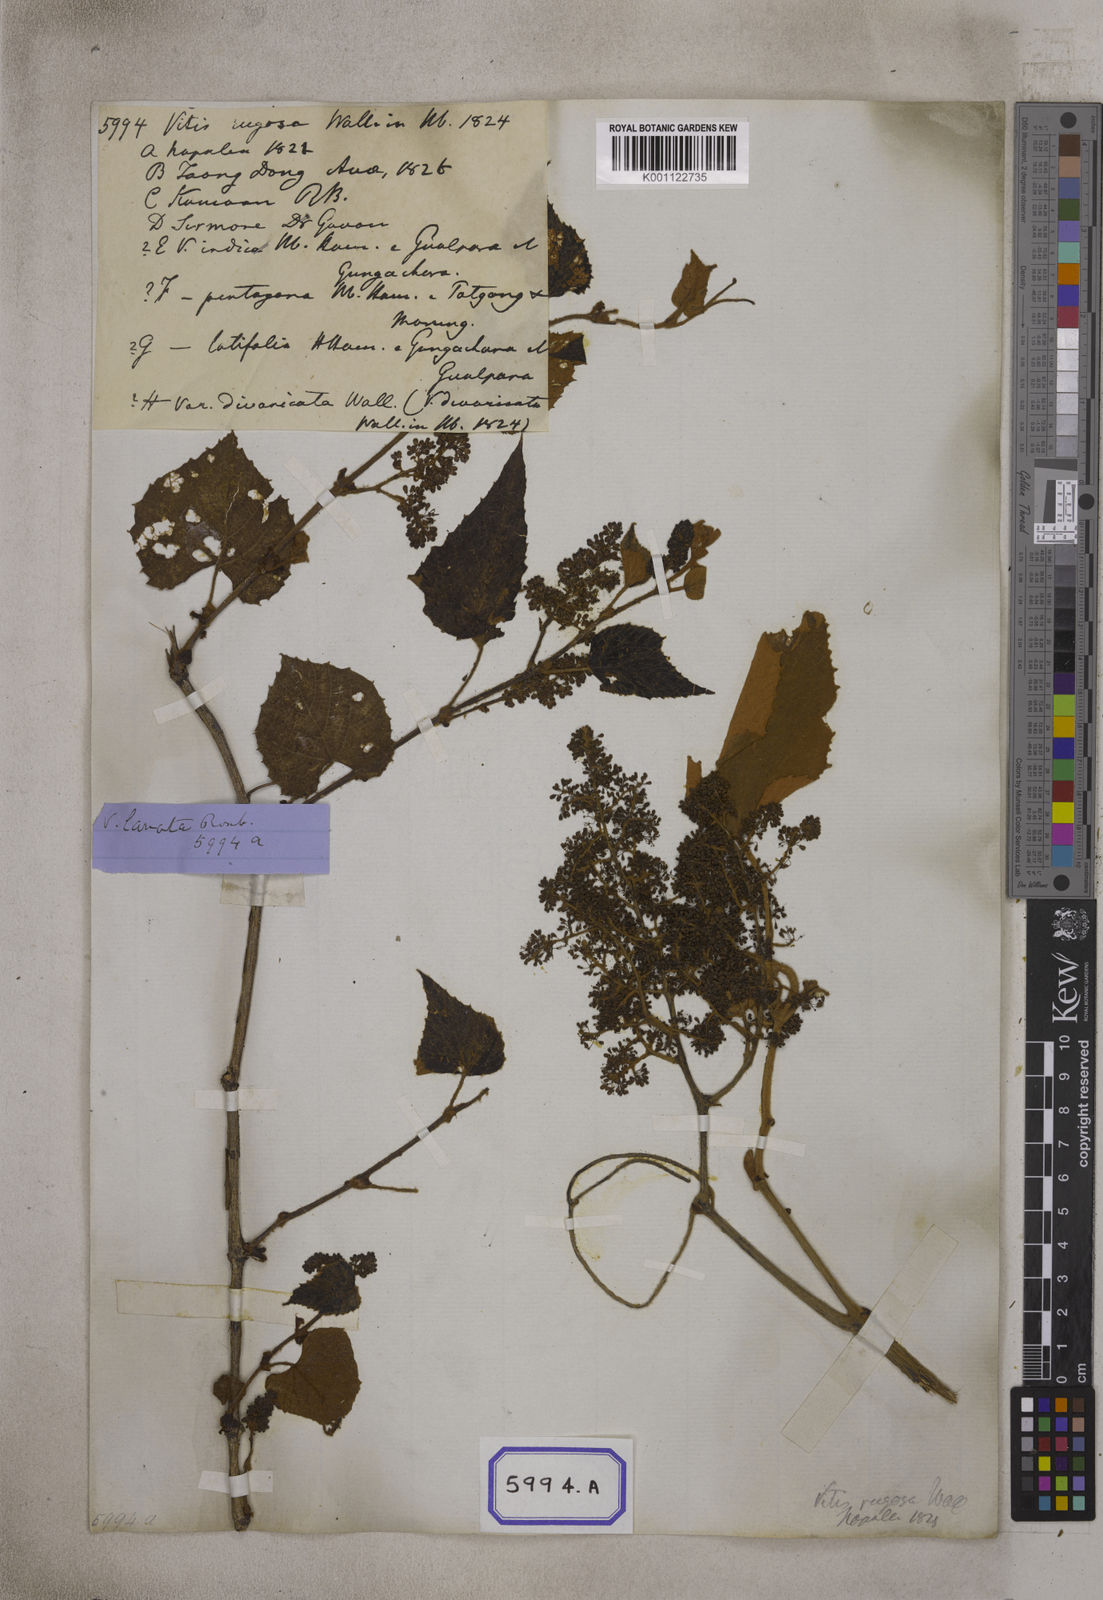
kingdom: Plantae
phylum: Tracheophyta
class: Magnoliopsida
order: Vitales
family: Vitaceae
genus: Ampelocissus
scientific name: Ampelocissus rugosa
